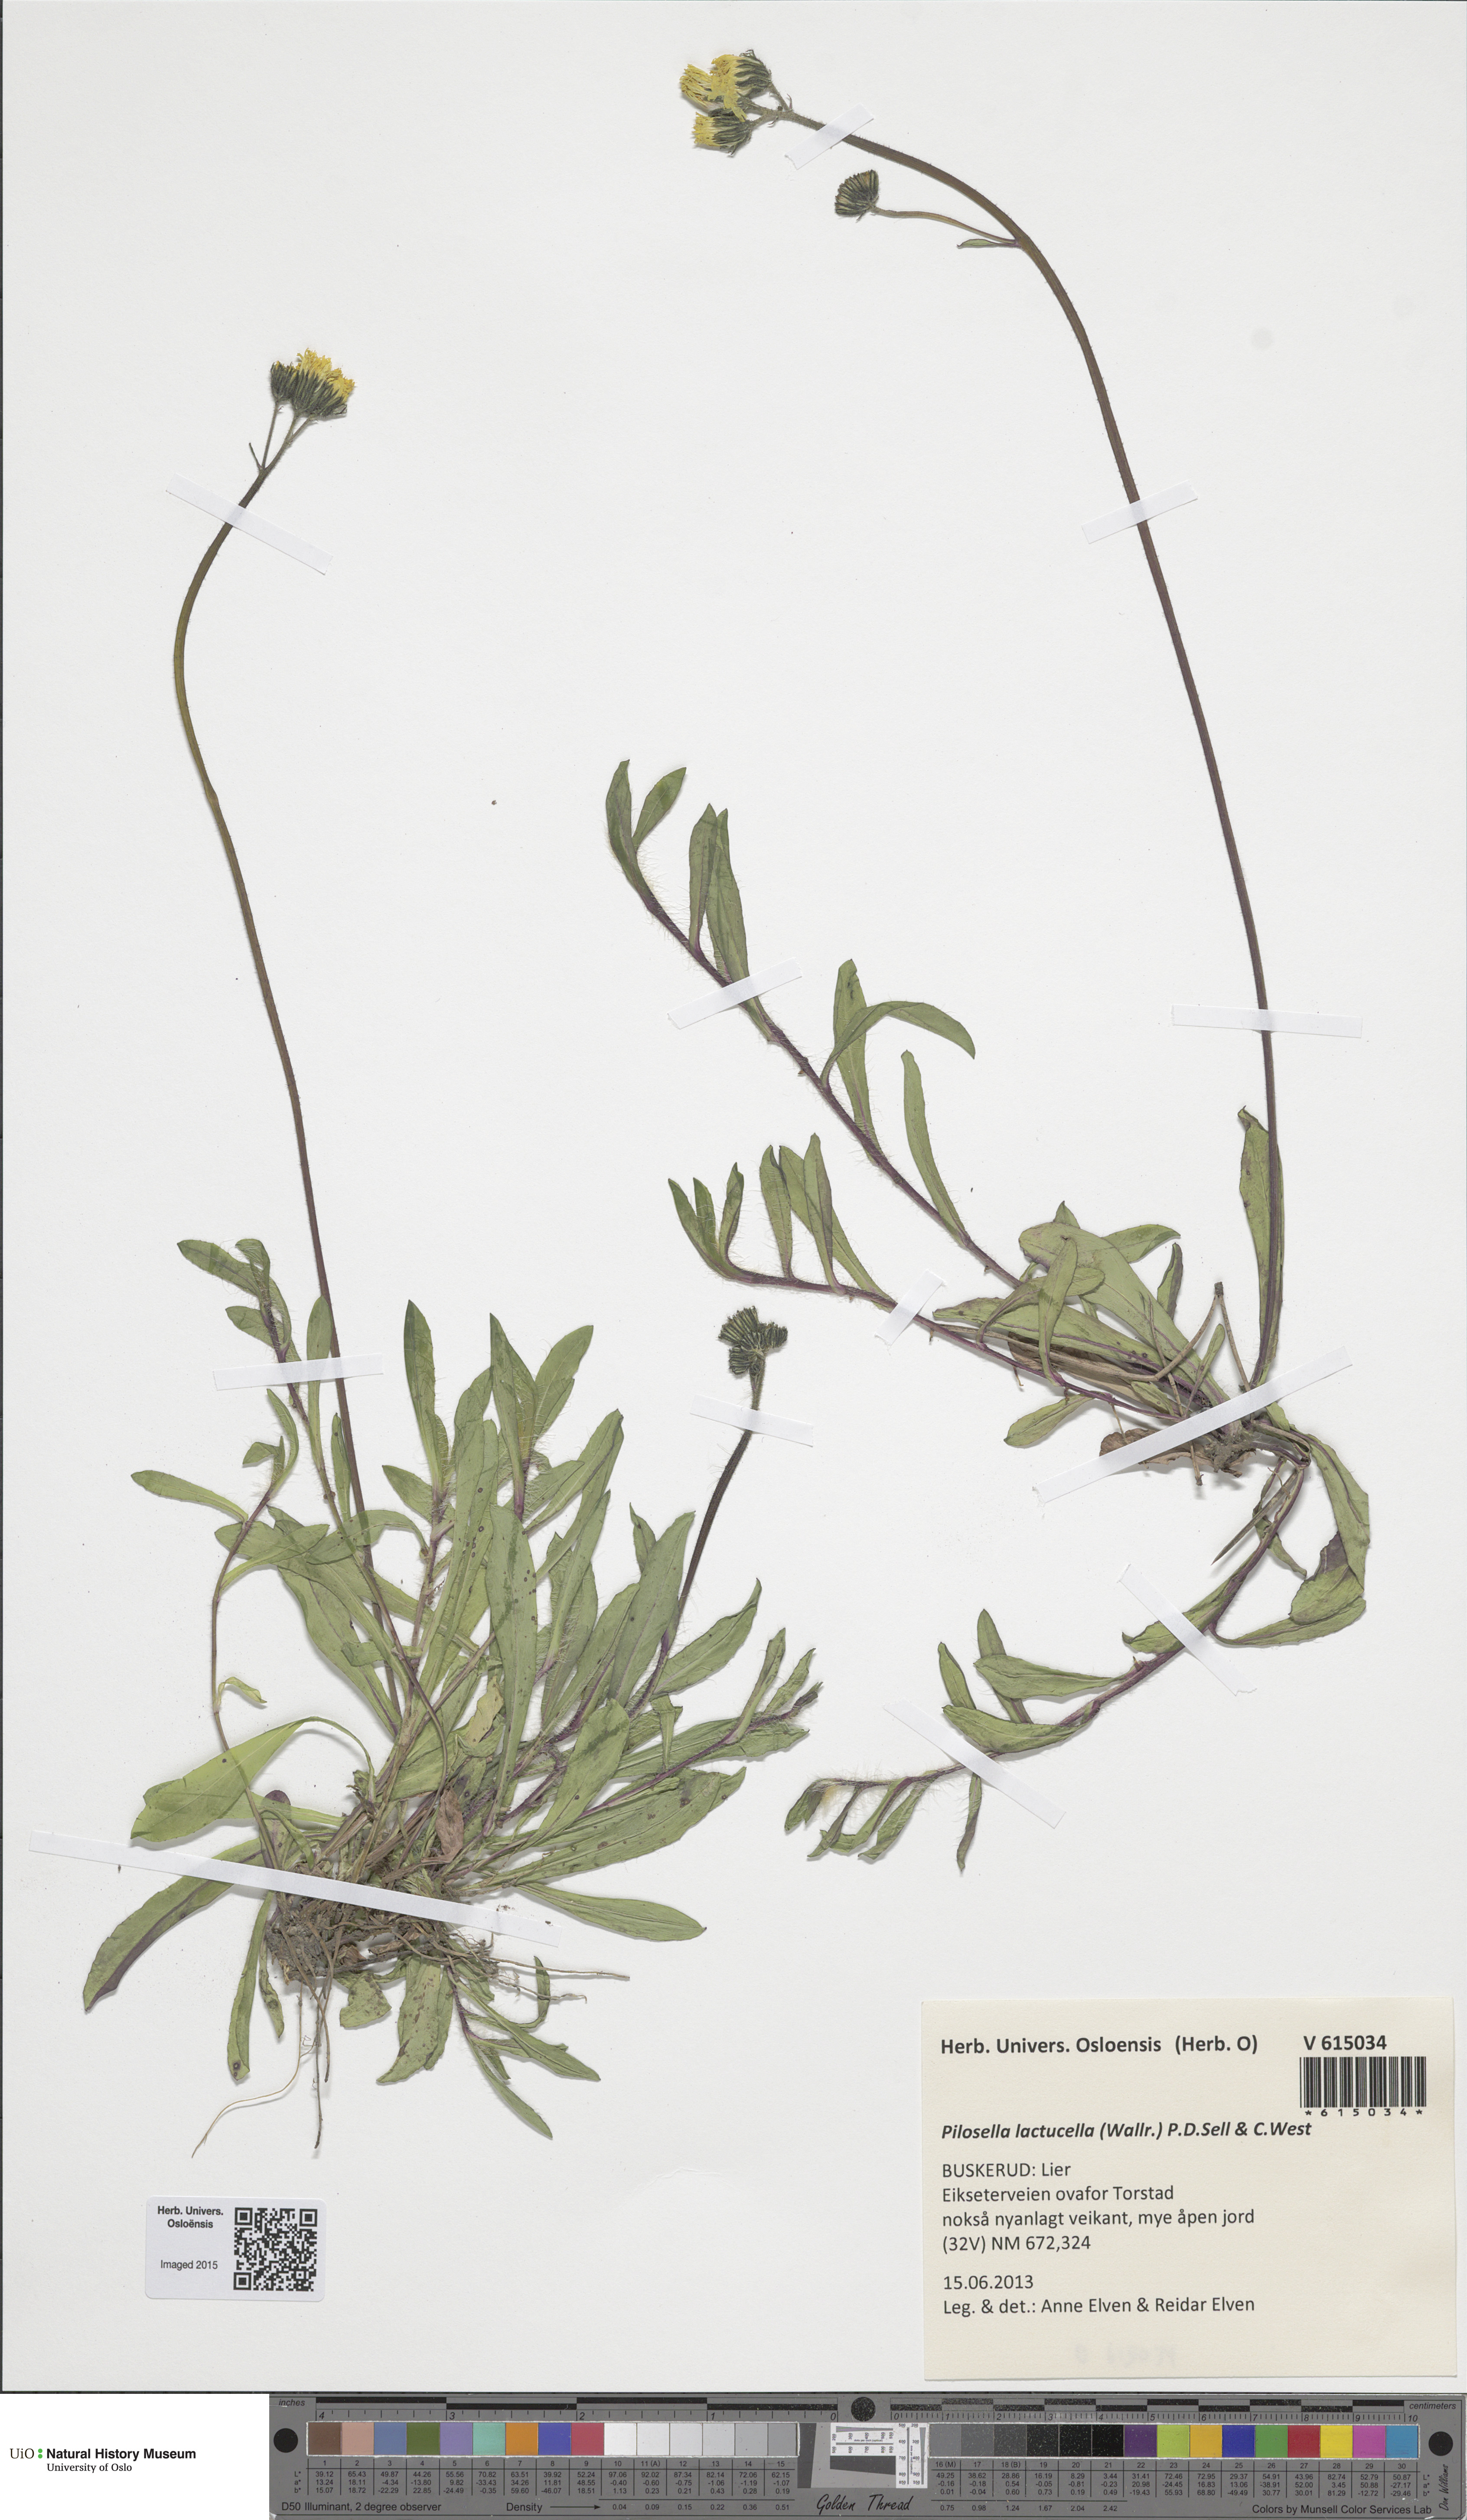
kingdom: Plantae
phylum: Tracheophyta
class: Magnoliopsida
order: Asterales
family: Asteraceae
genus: Pilosella
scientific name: Pilosella lactucella
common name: Glaucous fox-and-cubs
